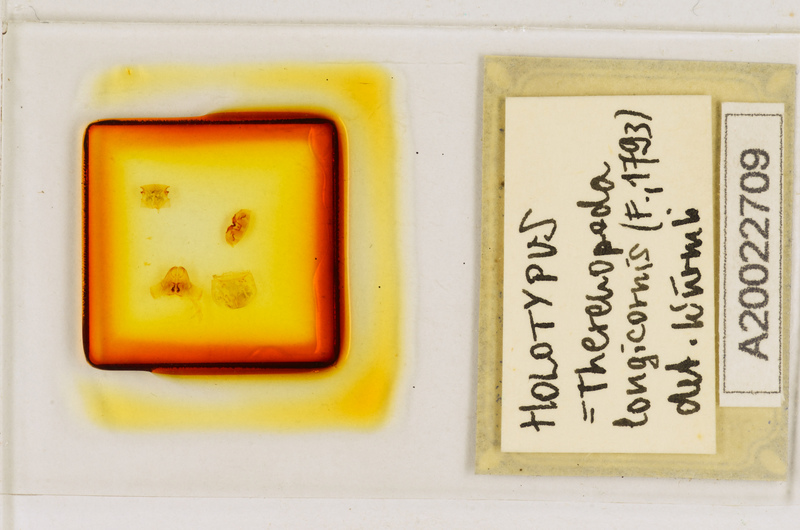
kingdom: Animalia
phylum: Arthropoda
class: Chilopoda
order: Scutigeromorpha
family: Scutigeridae
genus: Thereuopoda
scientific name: Thereuopoda longicornis
